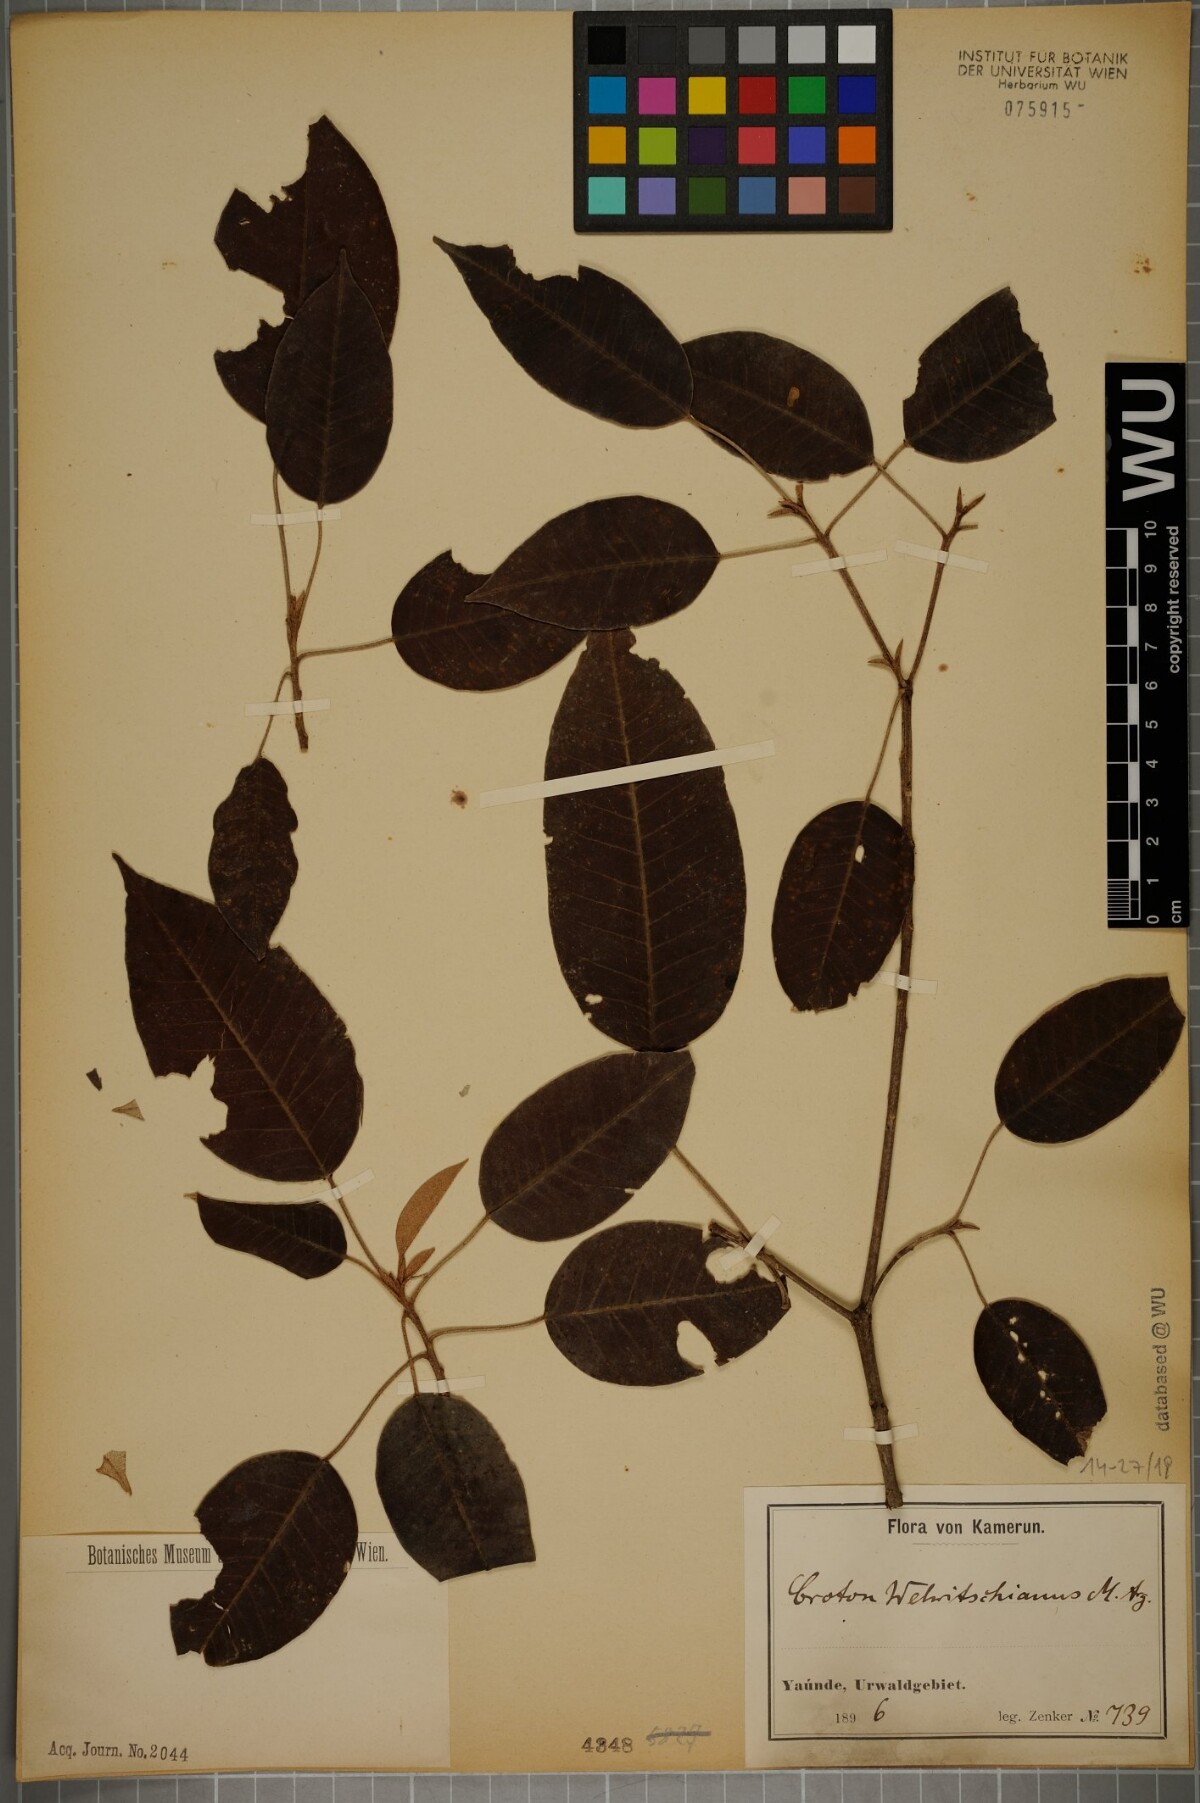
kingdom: Plantae
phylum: Tracheophyta
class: Magnoliopsida
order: Malpighiales
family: Euphorbiaceae
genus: Croton
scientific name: Croton gratissimus
